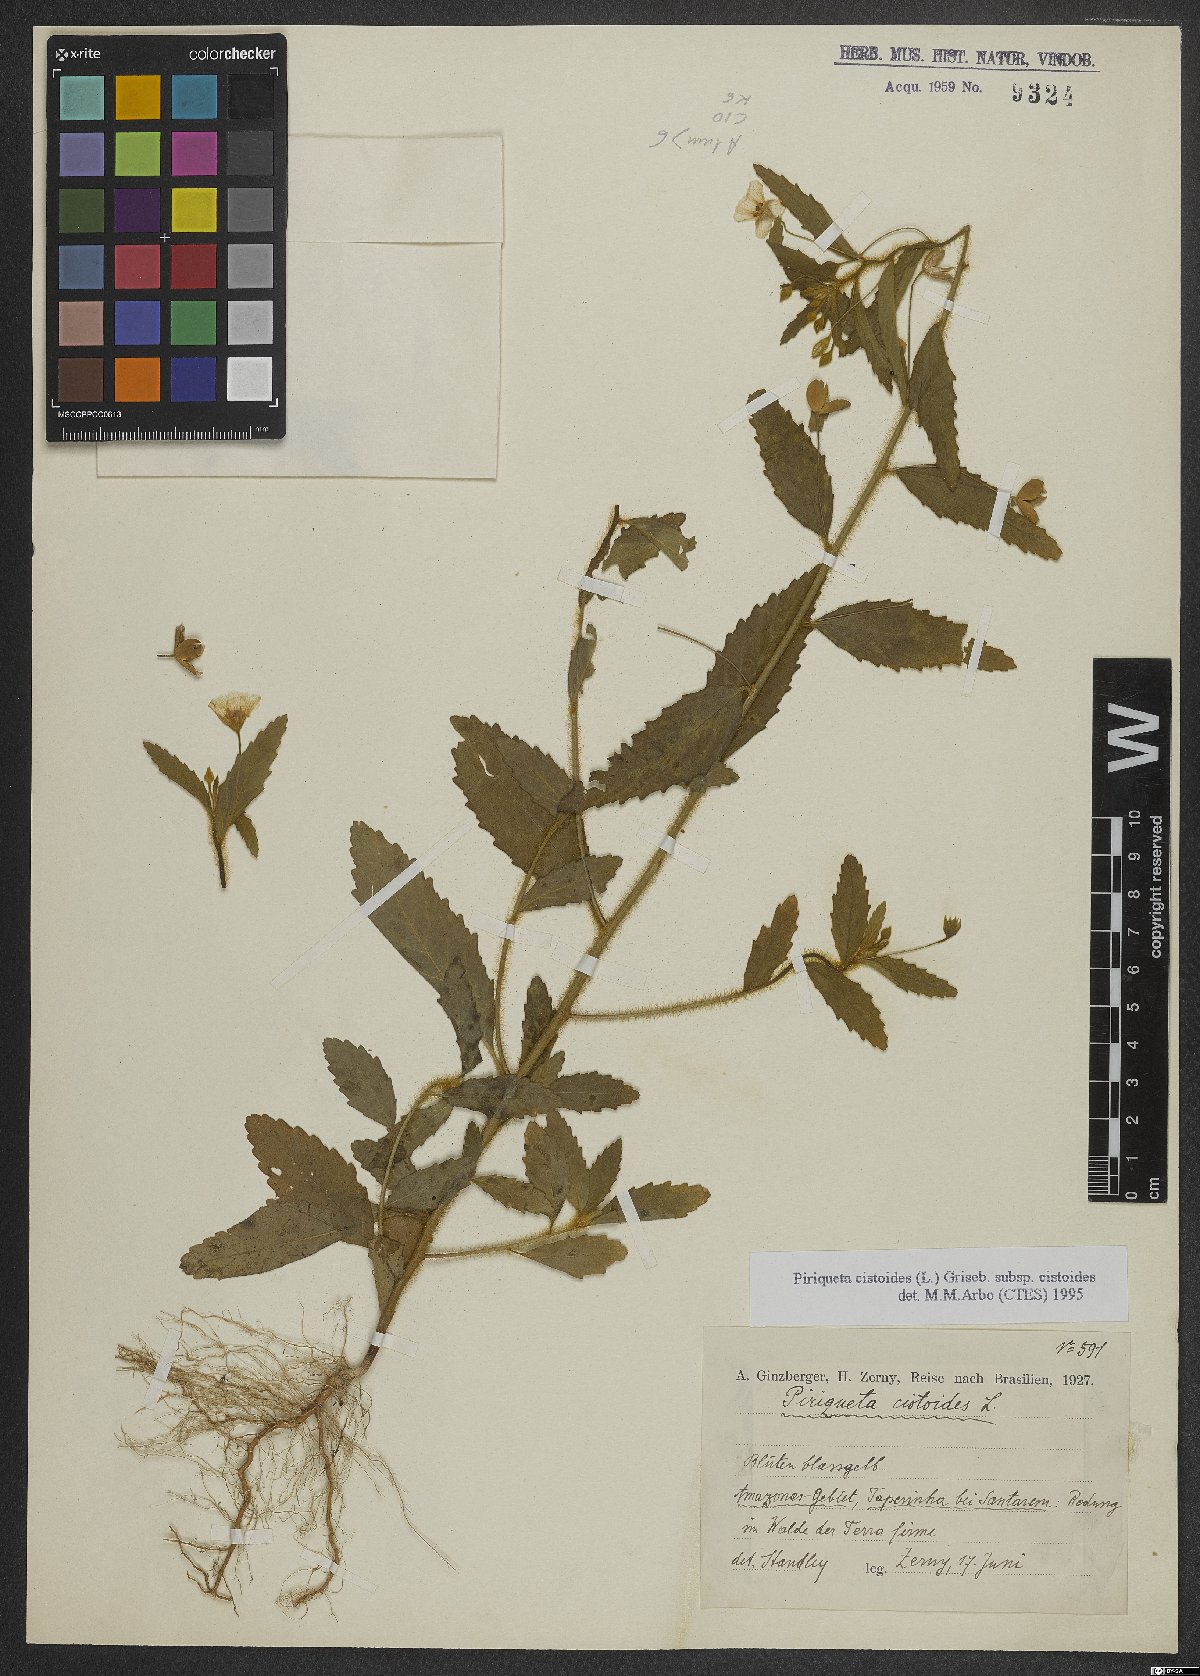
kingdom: Plantae
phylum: Tracheophyta
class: Magnoliopsida
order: Malpighiales
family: Turneraceae
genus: Piriqueta
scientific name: Piriqueta cistoides
